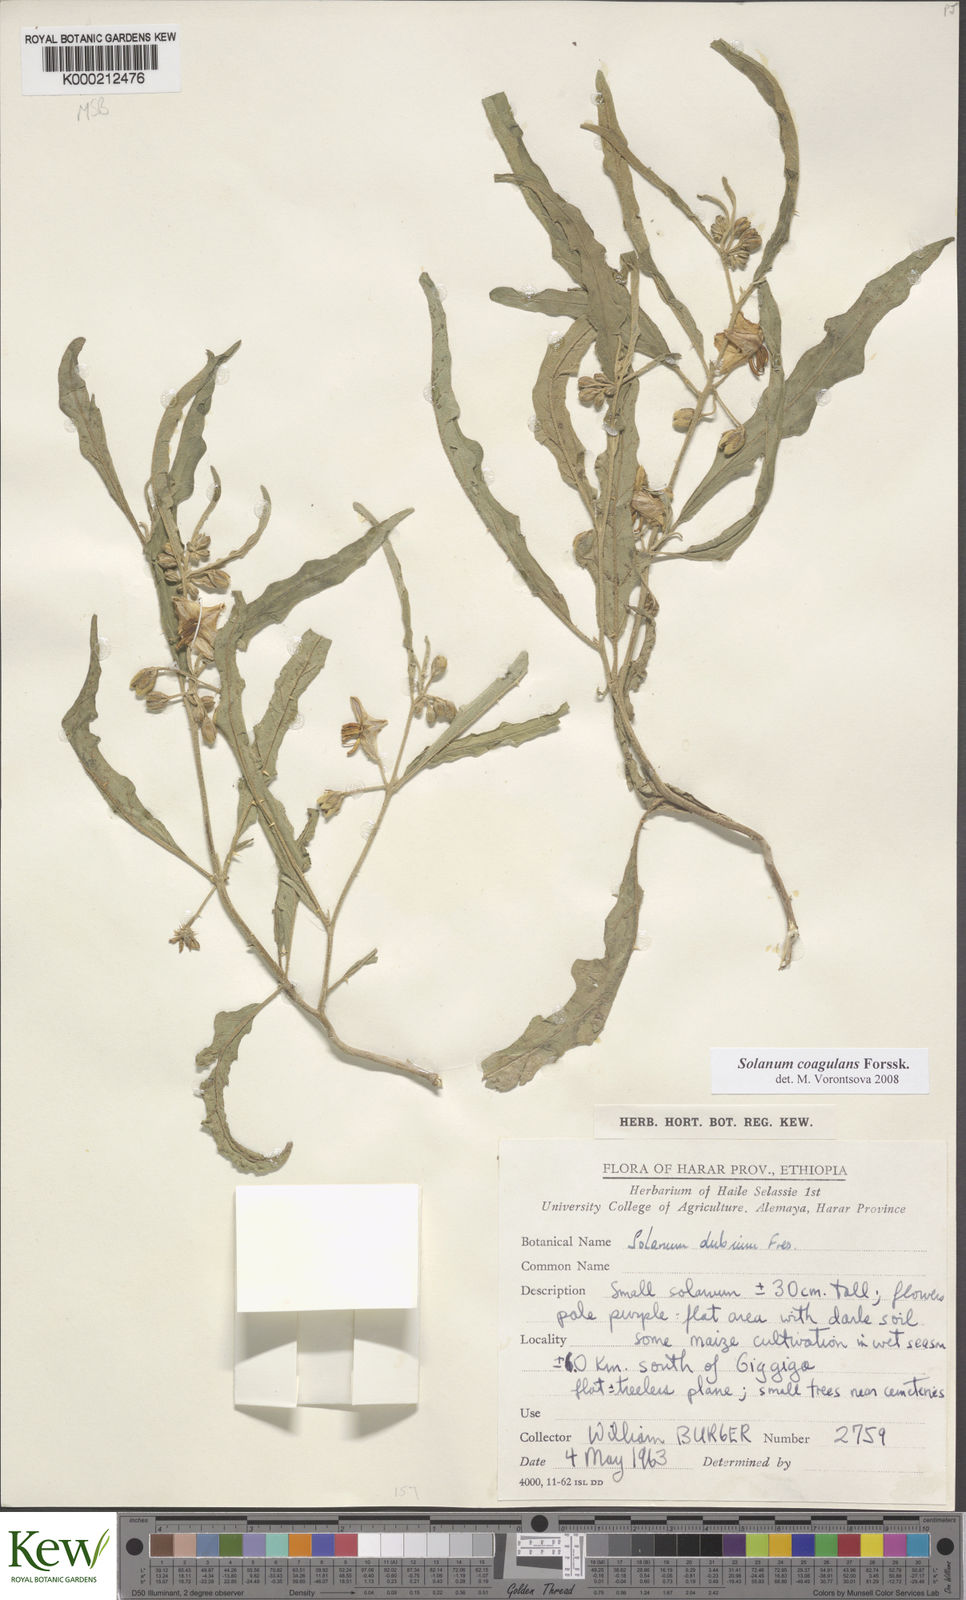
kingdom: Plantae
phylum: Tracheophyta
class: Magnoliopsida
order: Solanales
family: Solanaceae
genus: Solanum
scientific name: Solanum coagulans
